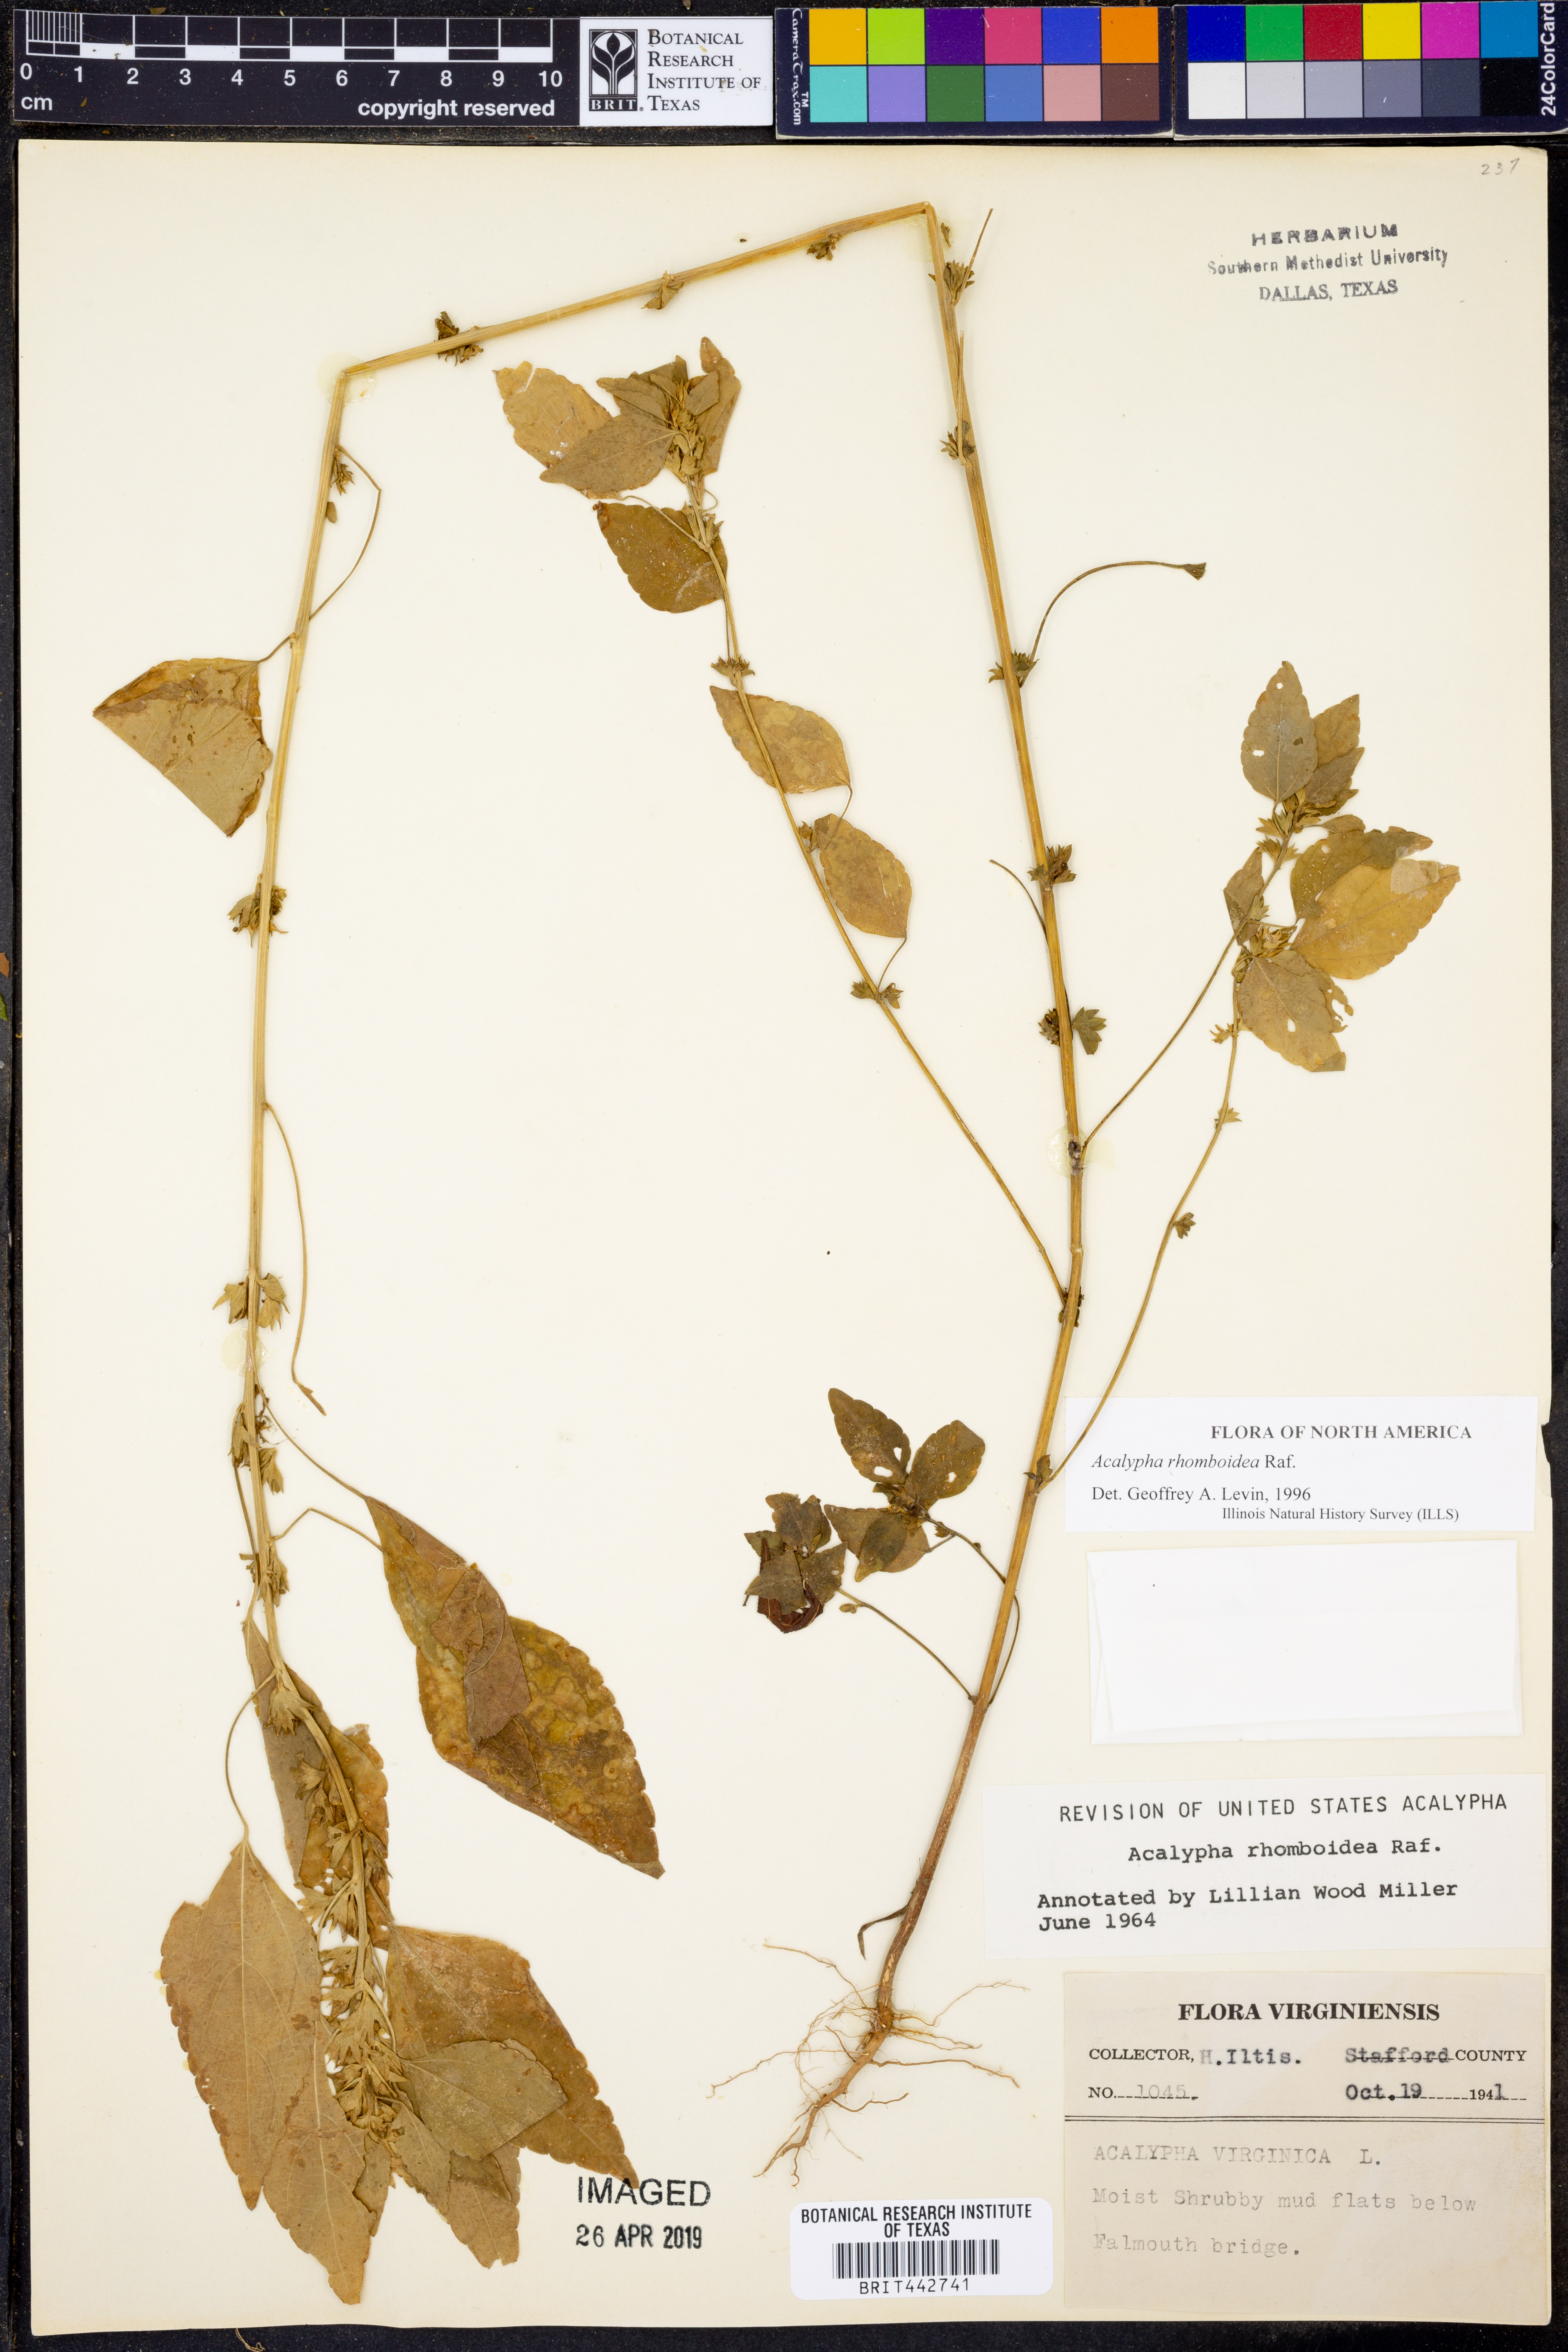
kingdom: Plantae
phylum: Tracheophyta
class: Magnoliopsida
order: Malpighiales
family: Euphorbiaceae
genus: Acalypha
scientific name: Acalypha rhomboidea
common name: Rhombic copperleaf
